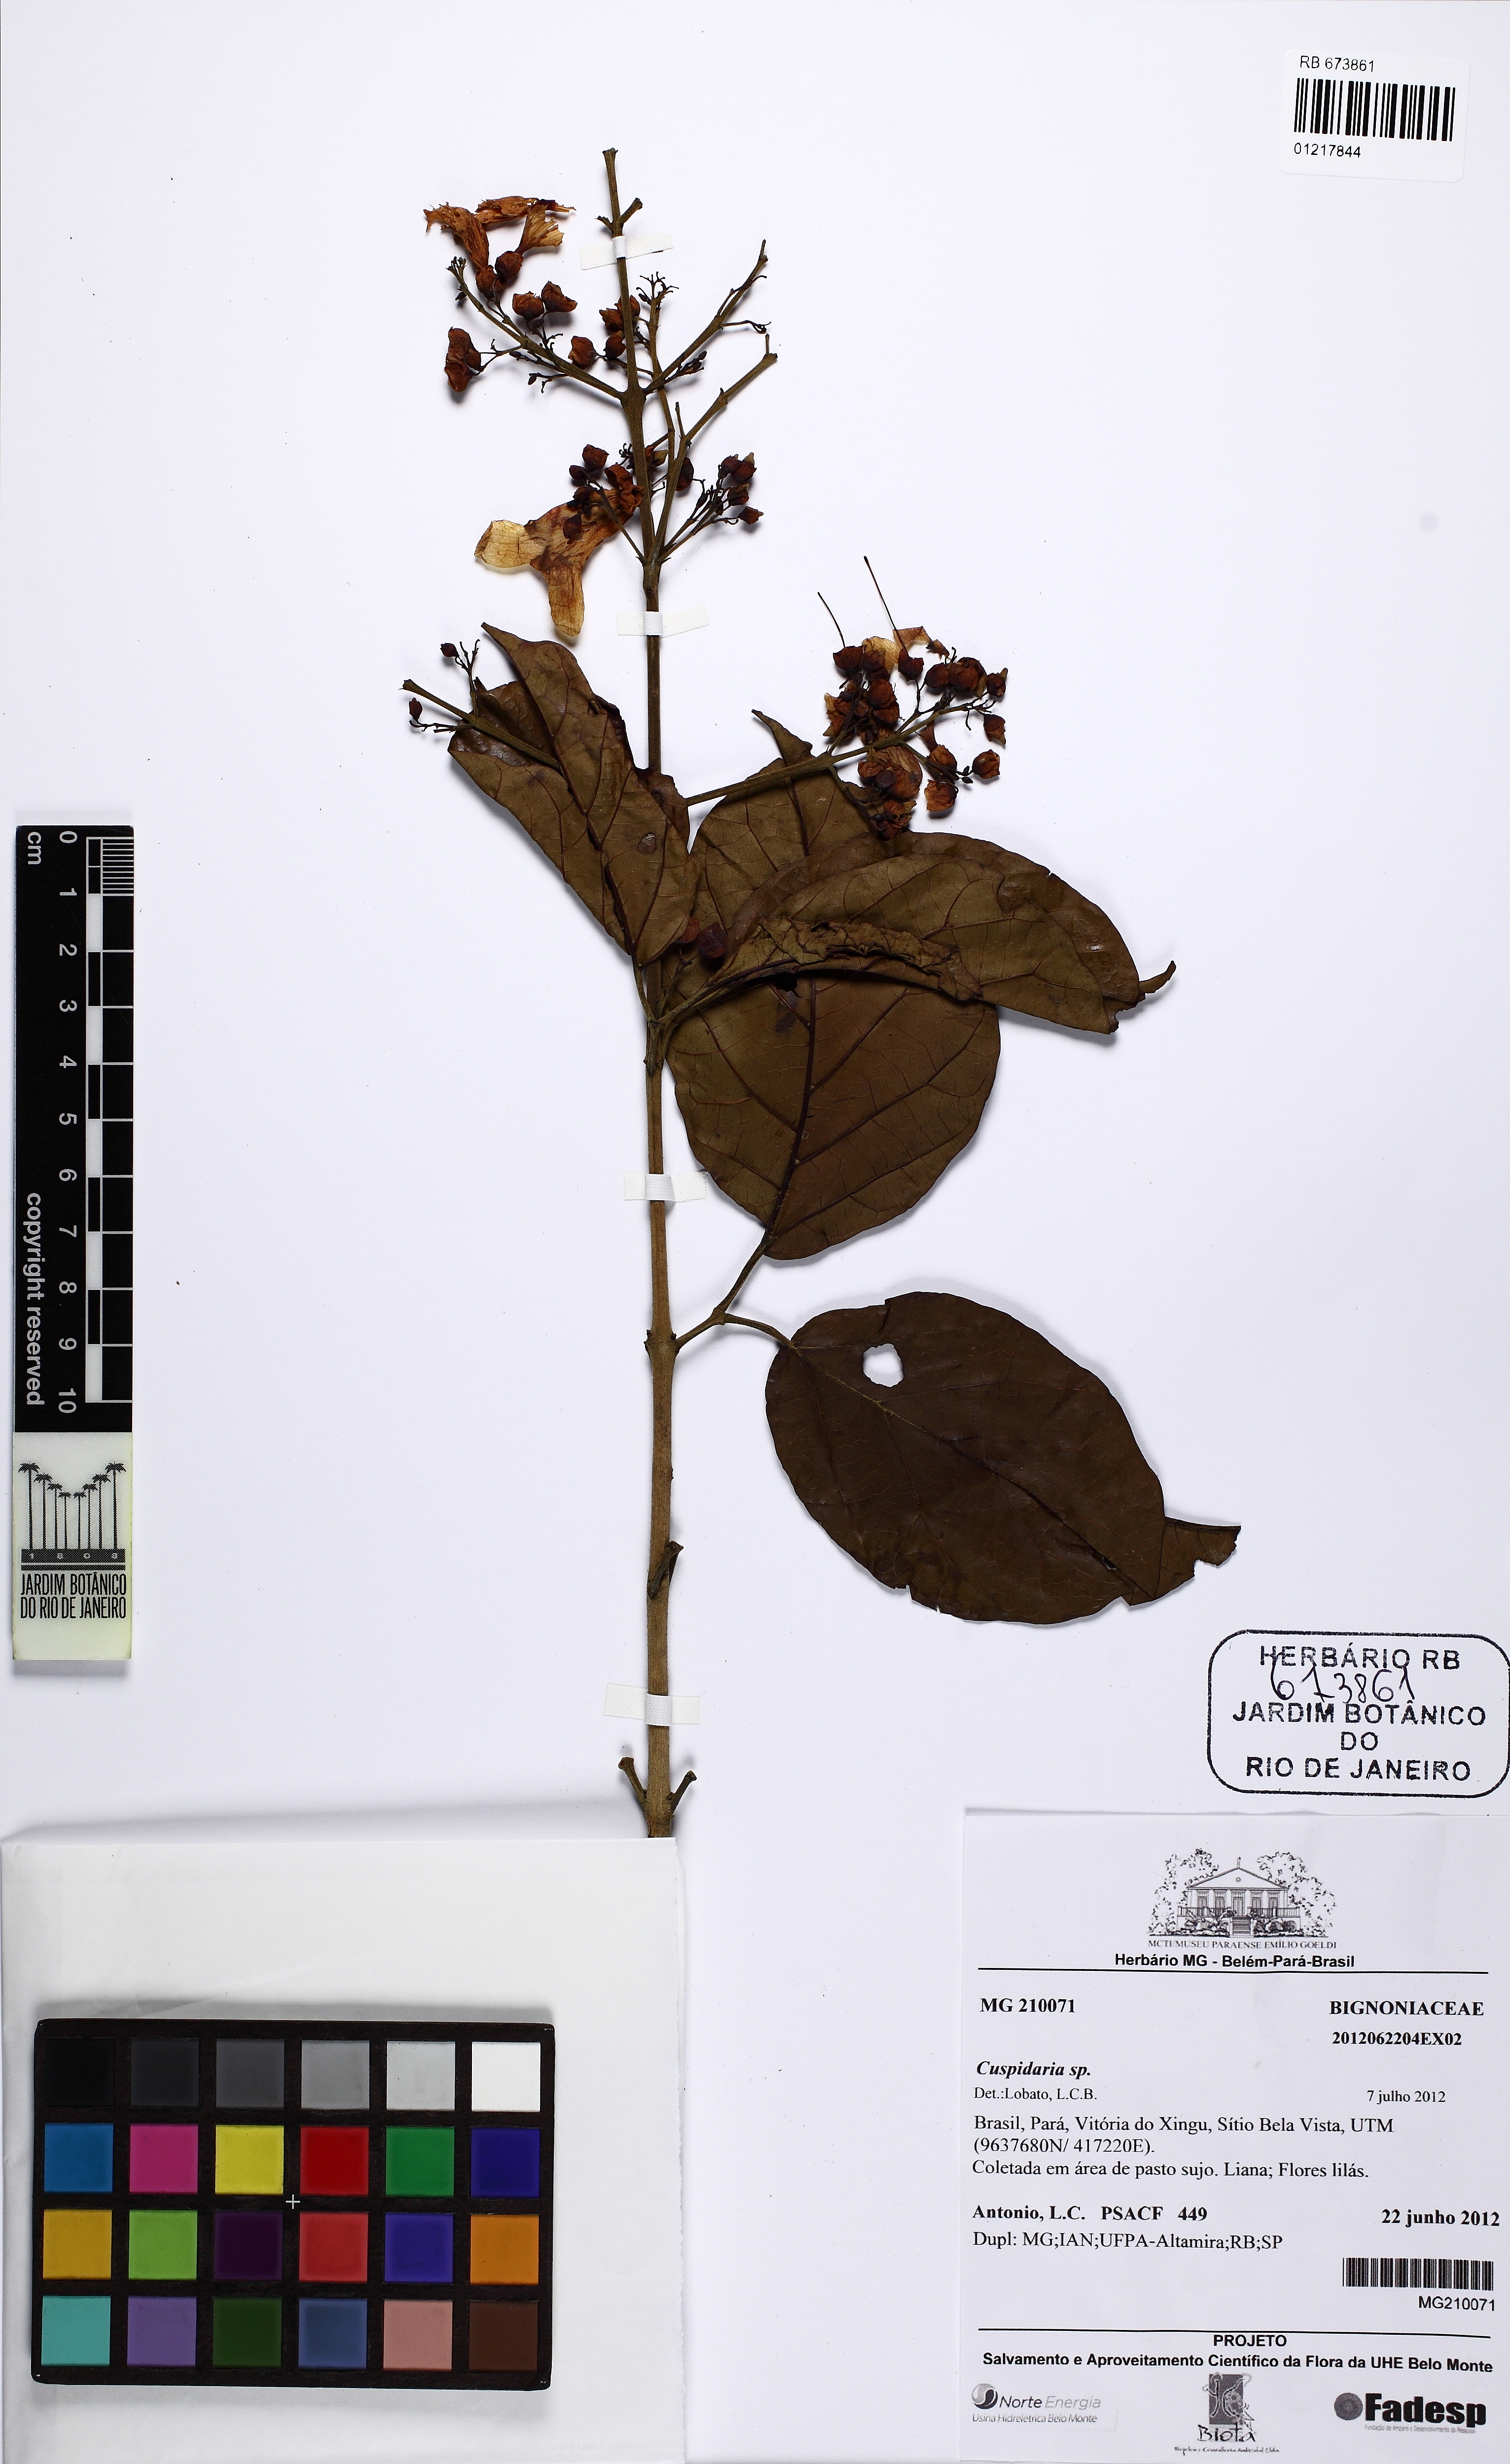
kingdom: Plantae
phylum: Tracheophyta
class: Magnoliopsida
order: Lamiales
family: Bignoniaceae
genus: Fridericia
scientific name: Fridericia
